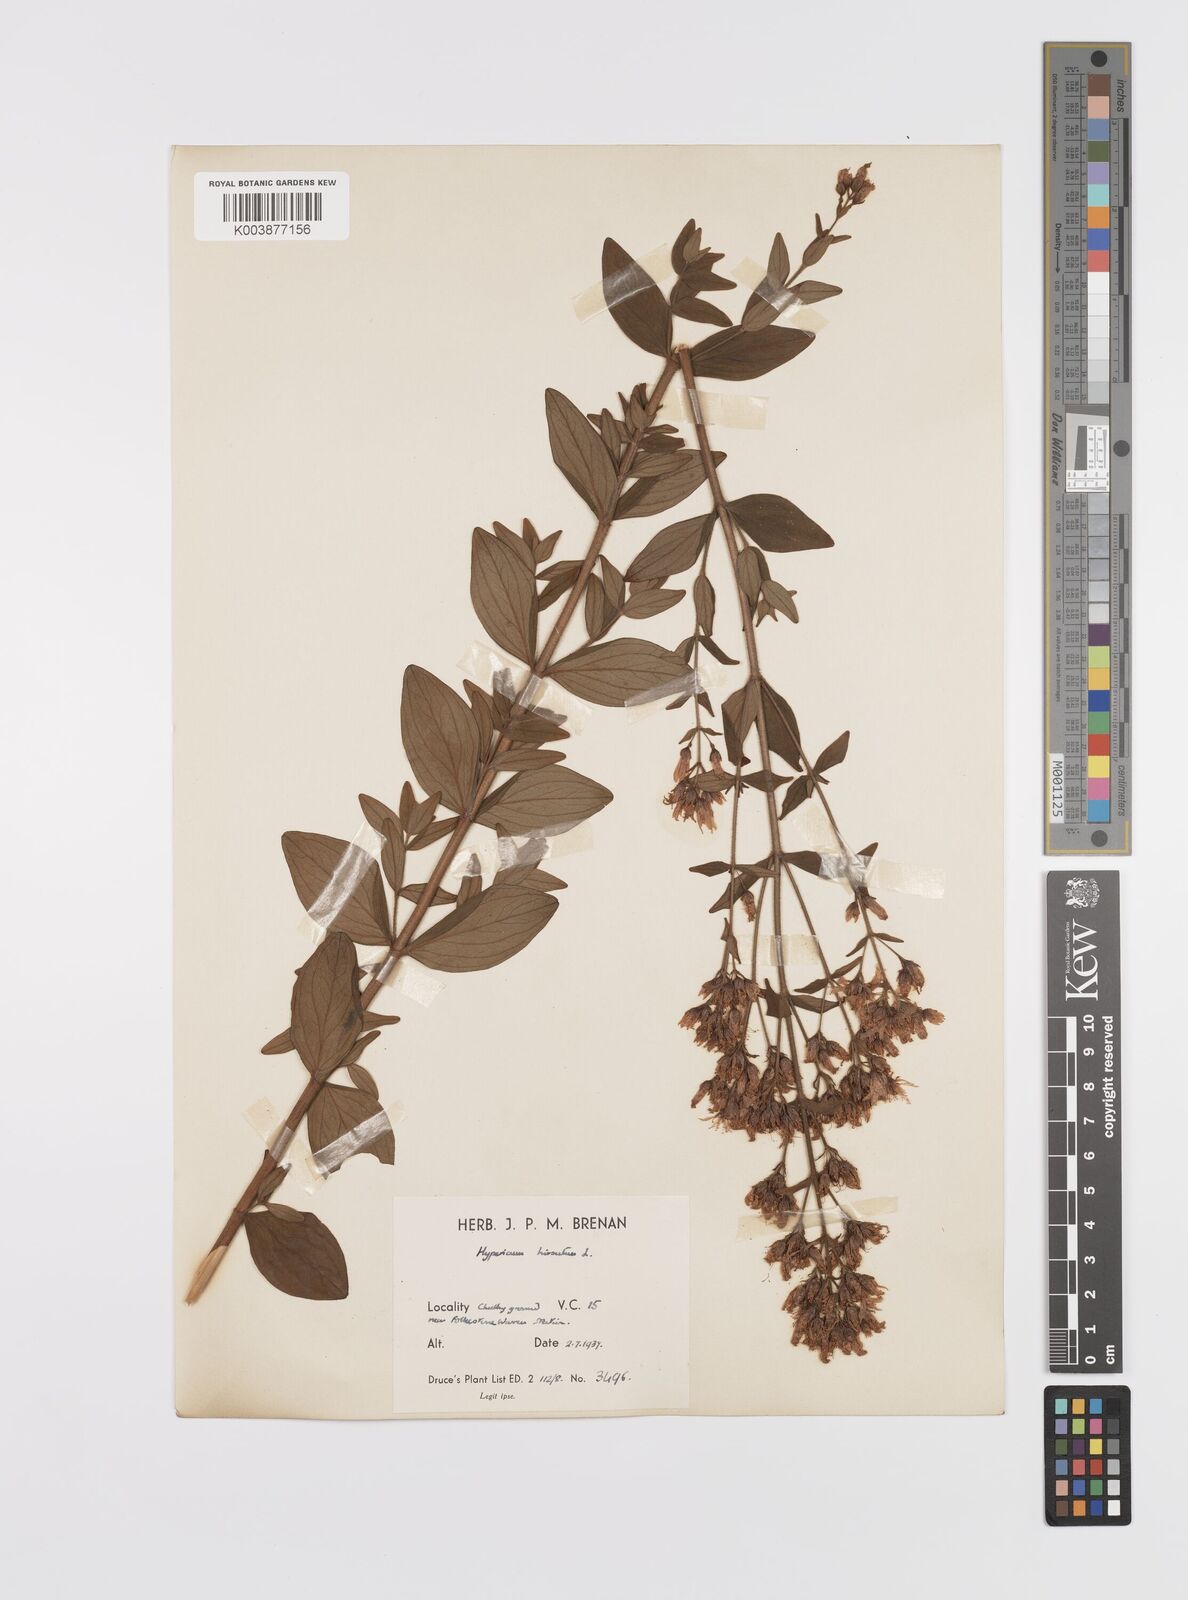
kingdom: Plantae
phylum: Tracheophyta
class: Magnoliopsida
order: Malpighiales
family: Hypericaceae
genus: Hypericum
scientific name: Hypericum hirsutum
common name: Hairy st. john's-wort
